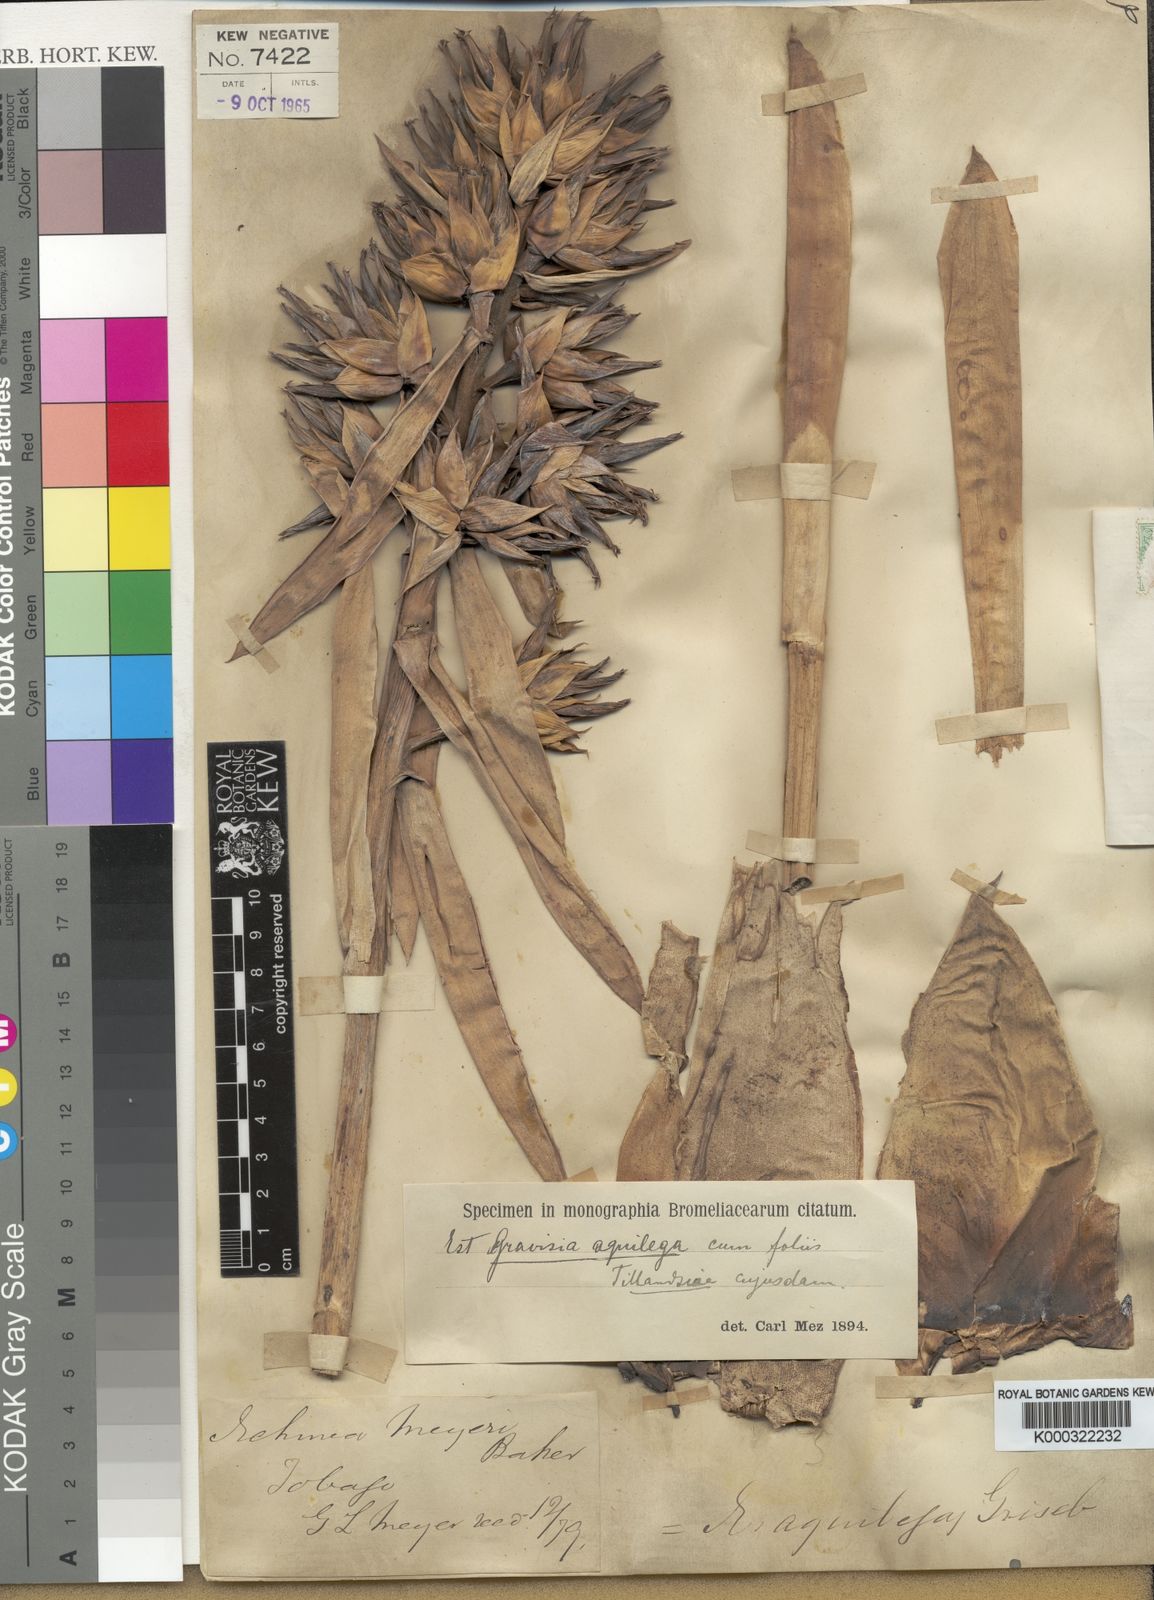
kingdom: Plantae
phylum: Tracheophyta
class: Liliopsida
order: Poales
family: Bromeliaceae
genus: Aechmea
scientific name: Aechmea aquilega
